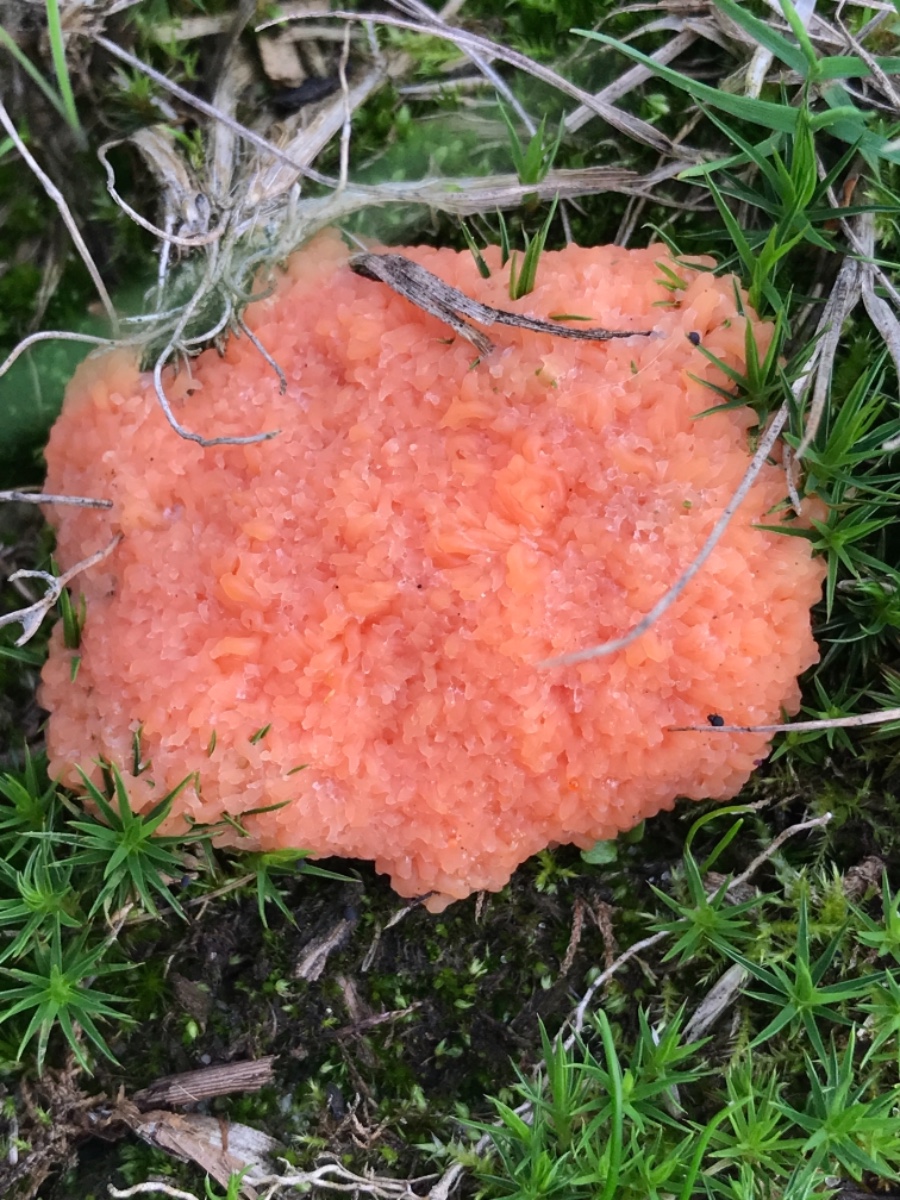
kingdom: Protozoa
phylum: Mycetozoa
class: Myxomycetes
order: Cribrariales
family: Tubiferaceae
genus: Tubifera
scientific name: Tubifera ferruginosa
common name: kanel-støvrør
